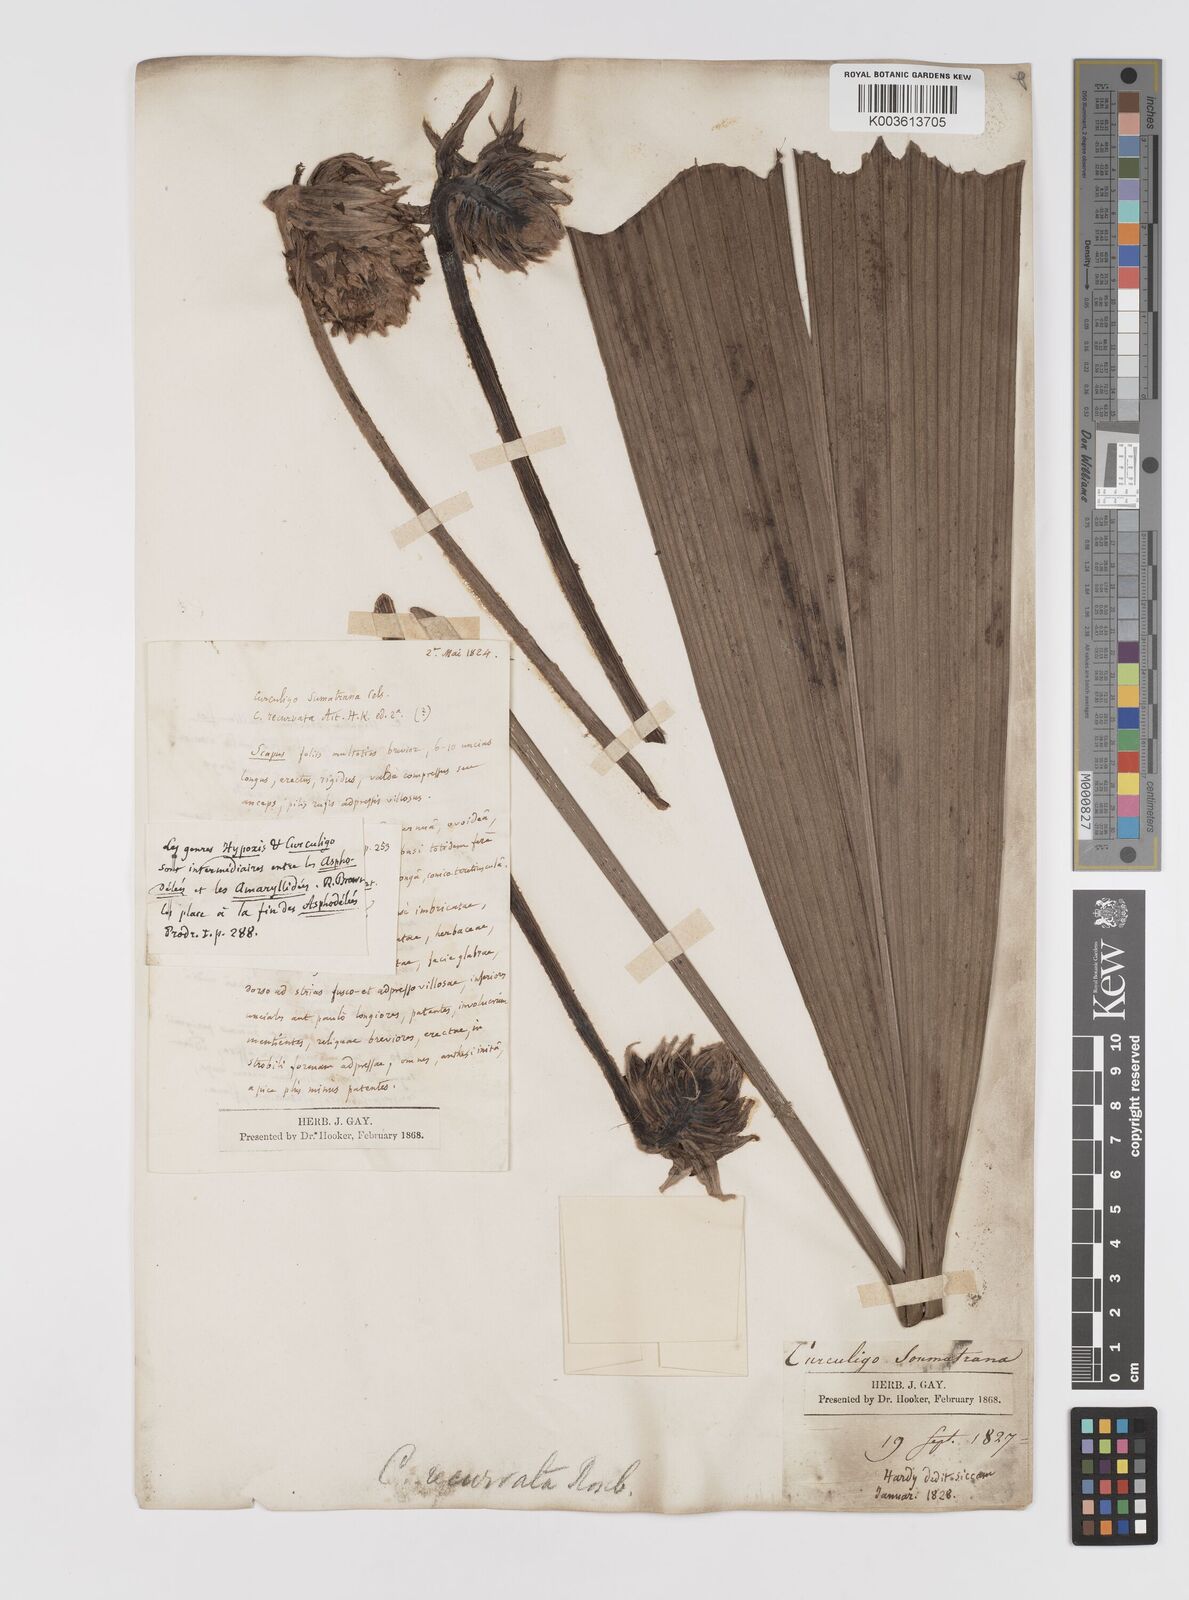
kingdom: Plantae
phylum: Tracheophyta
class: Liliopsida
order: Asparagales
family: Hypoxidaceae
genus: Curculigo
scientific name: Curculigo capitulata
